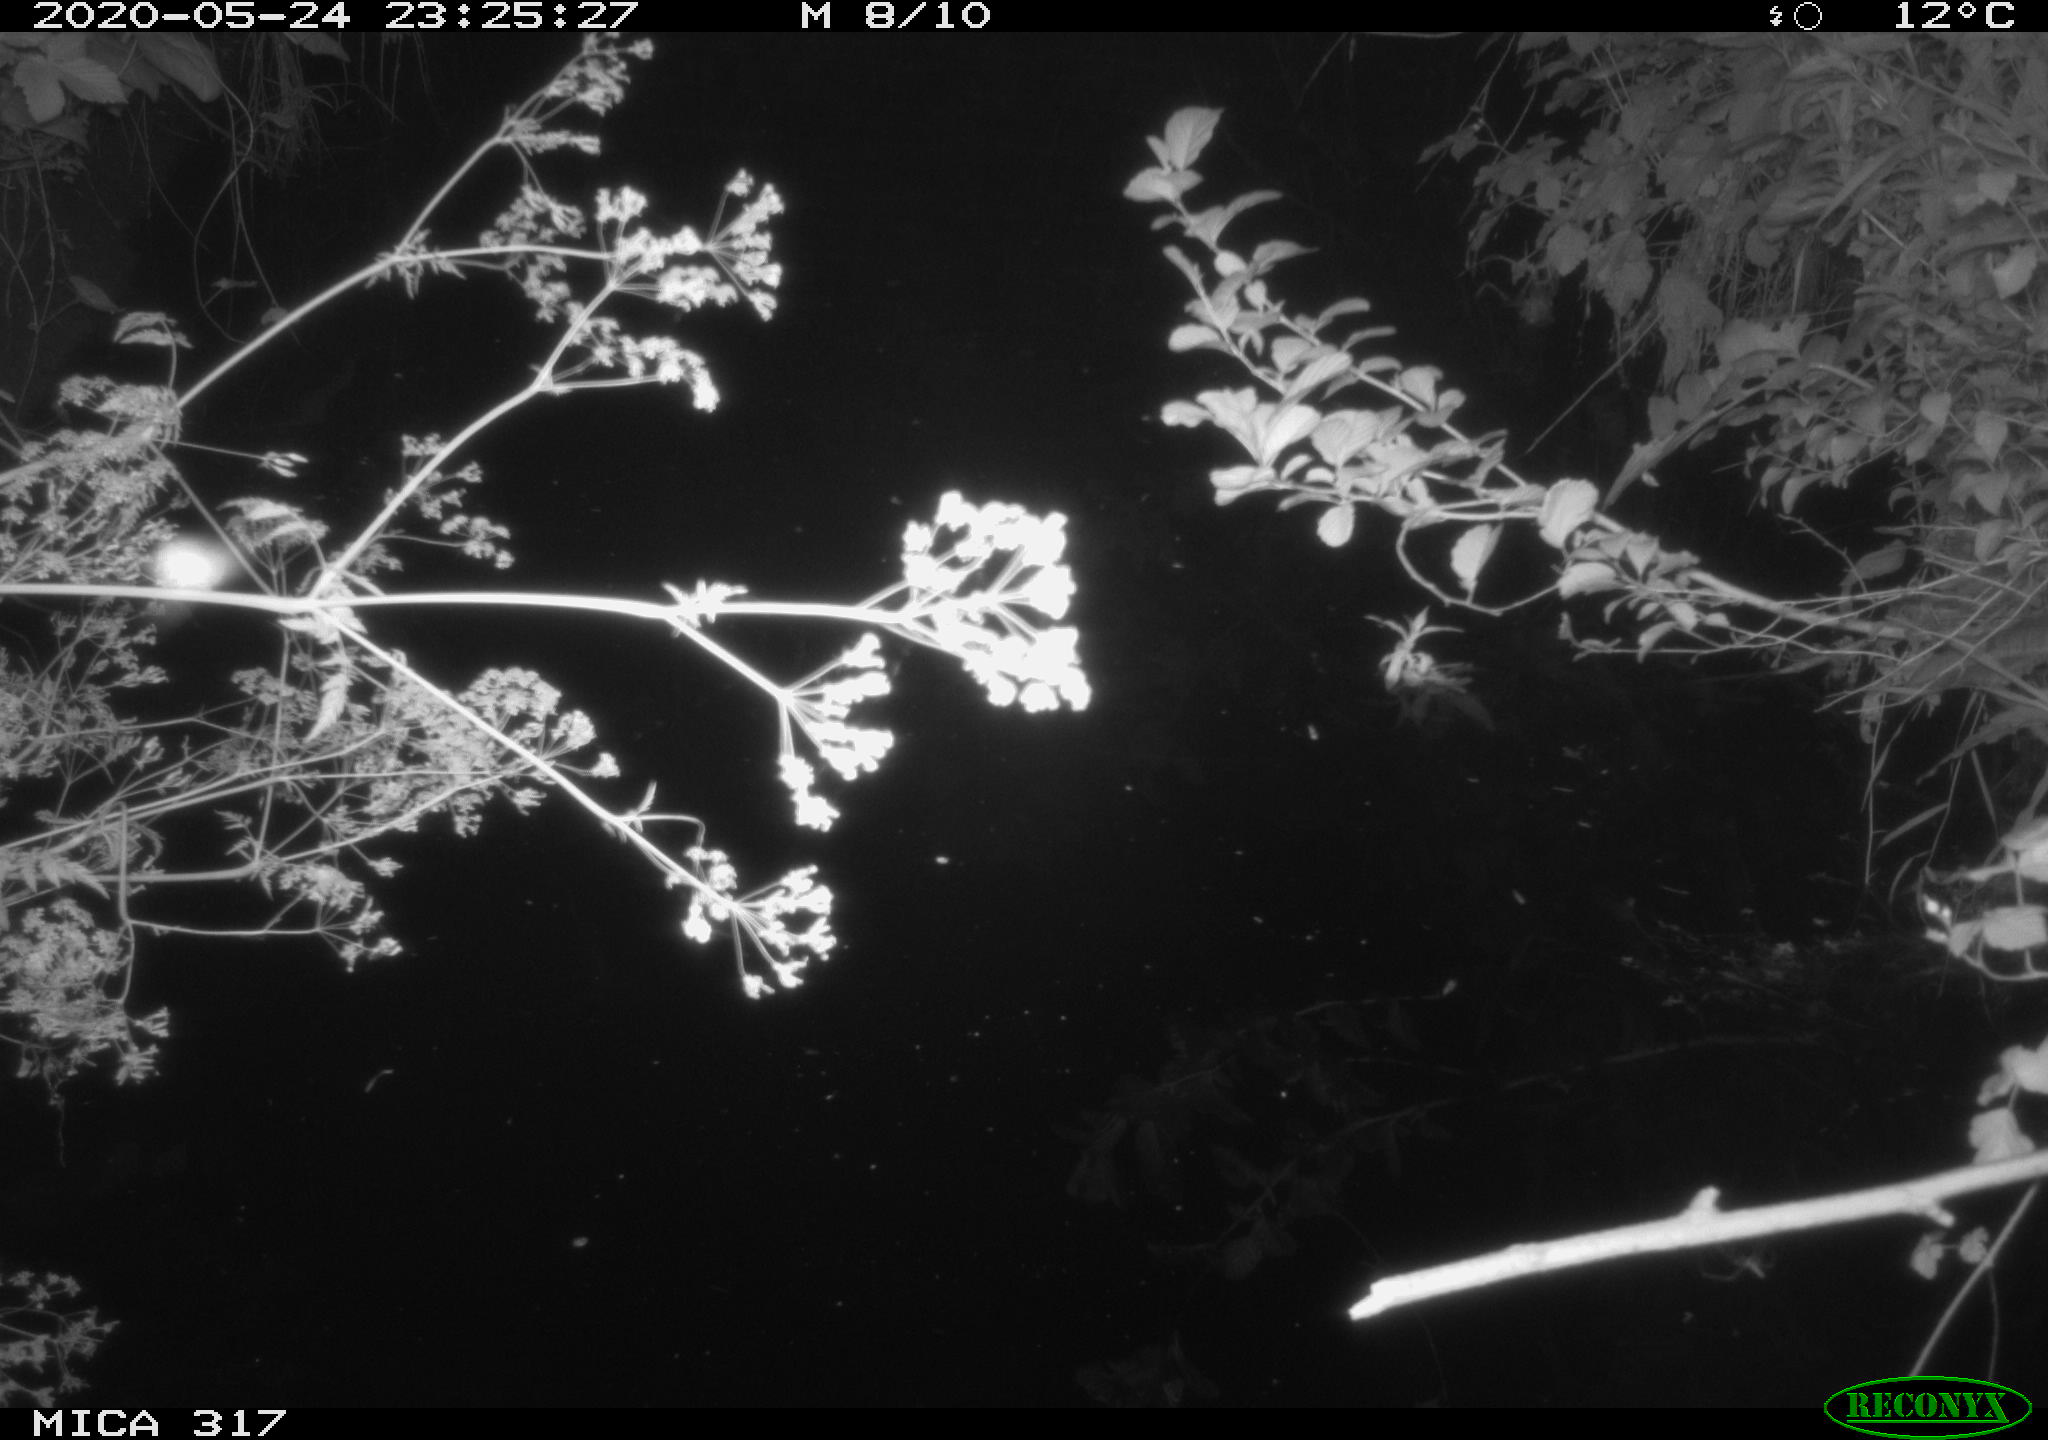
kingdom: Animalia
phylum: Chordata
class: Aves
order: Anseriformes
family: Anatidae
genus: Anas
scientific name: Anas platyrhynchos
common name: Mallard
